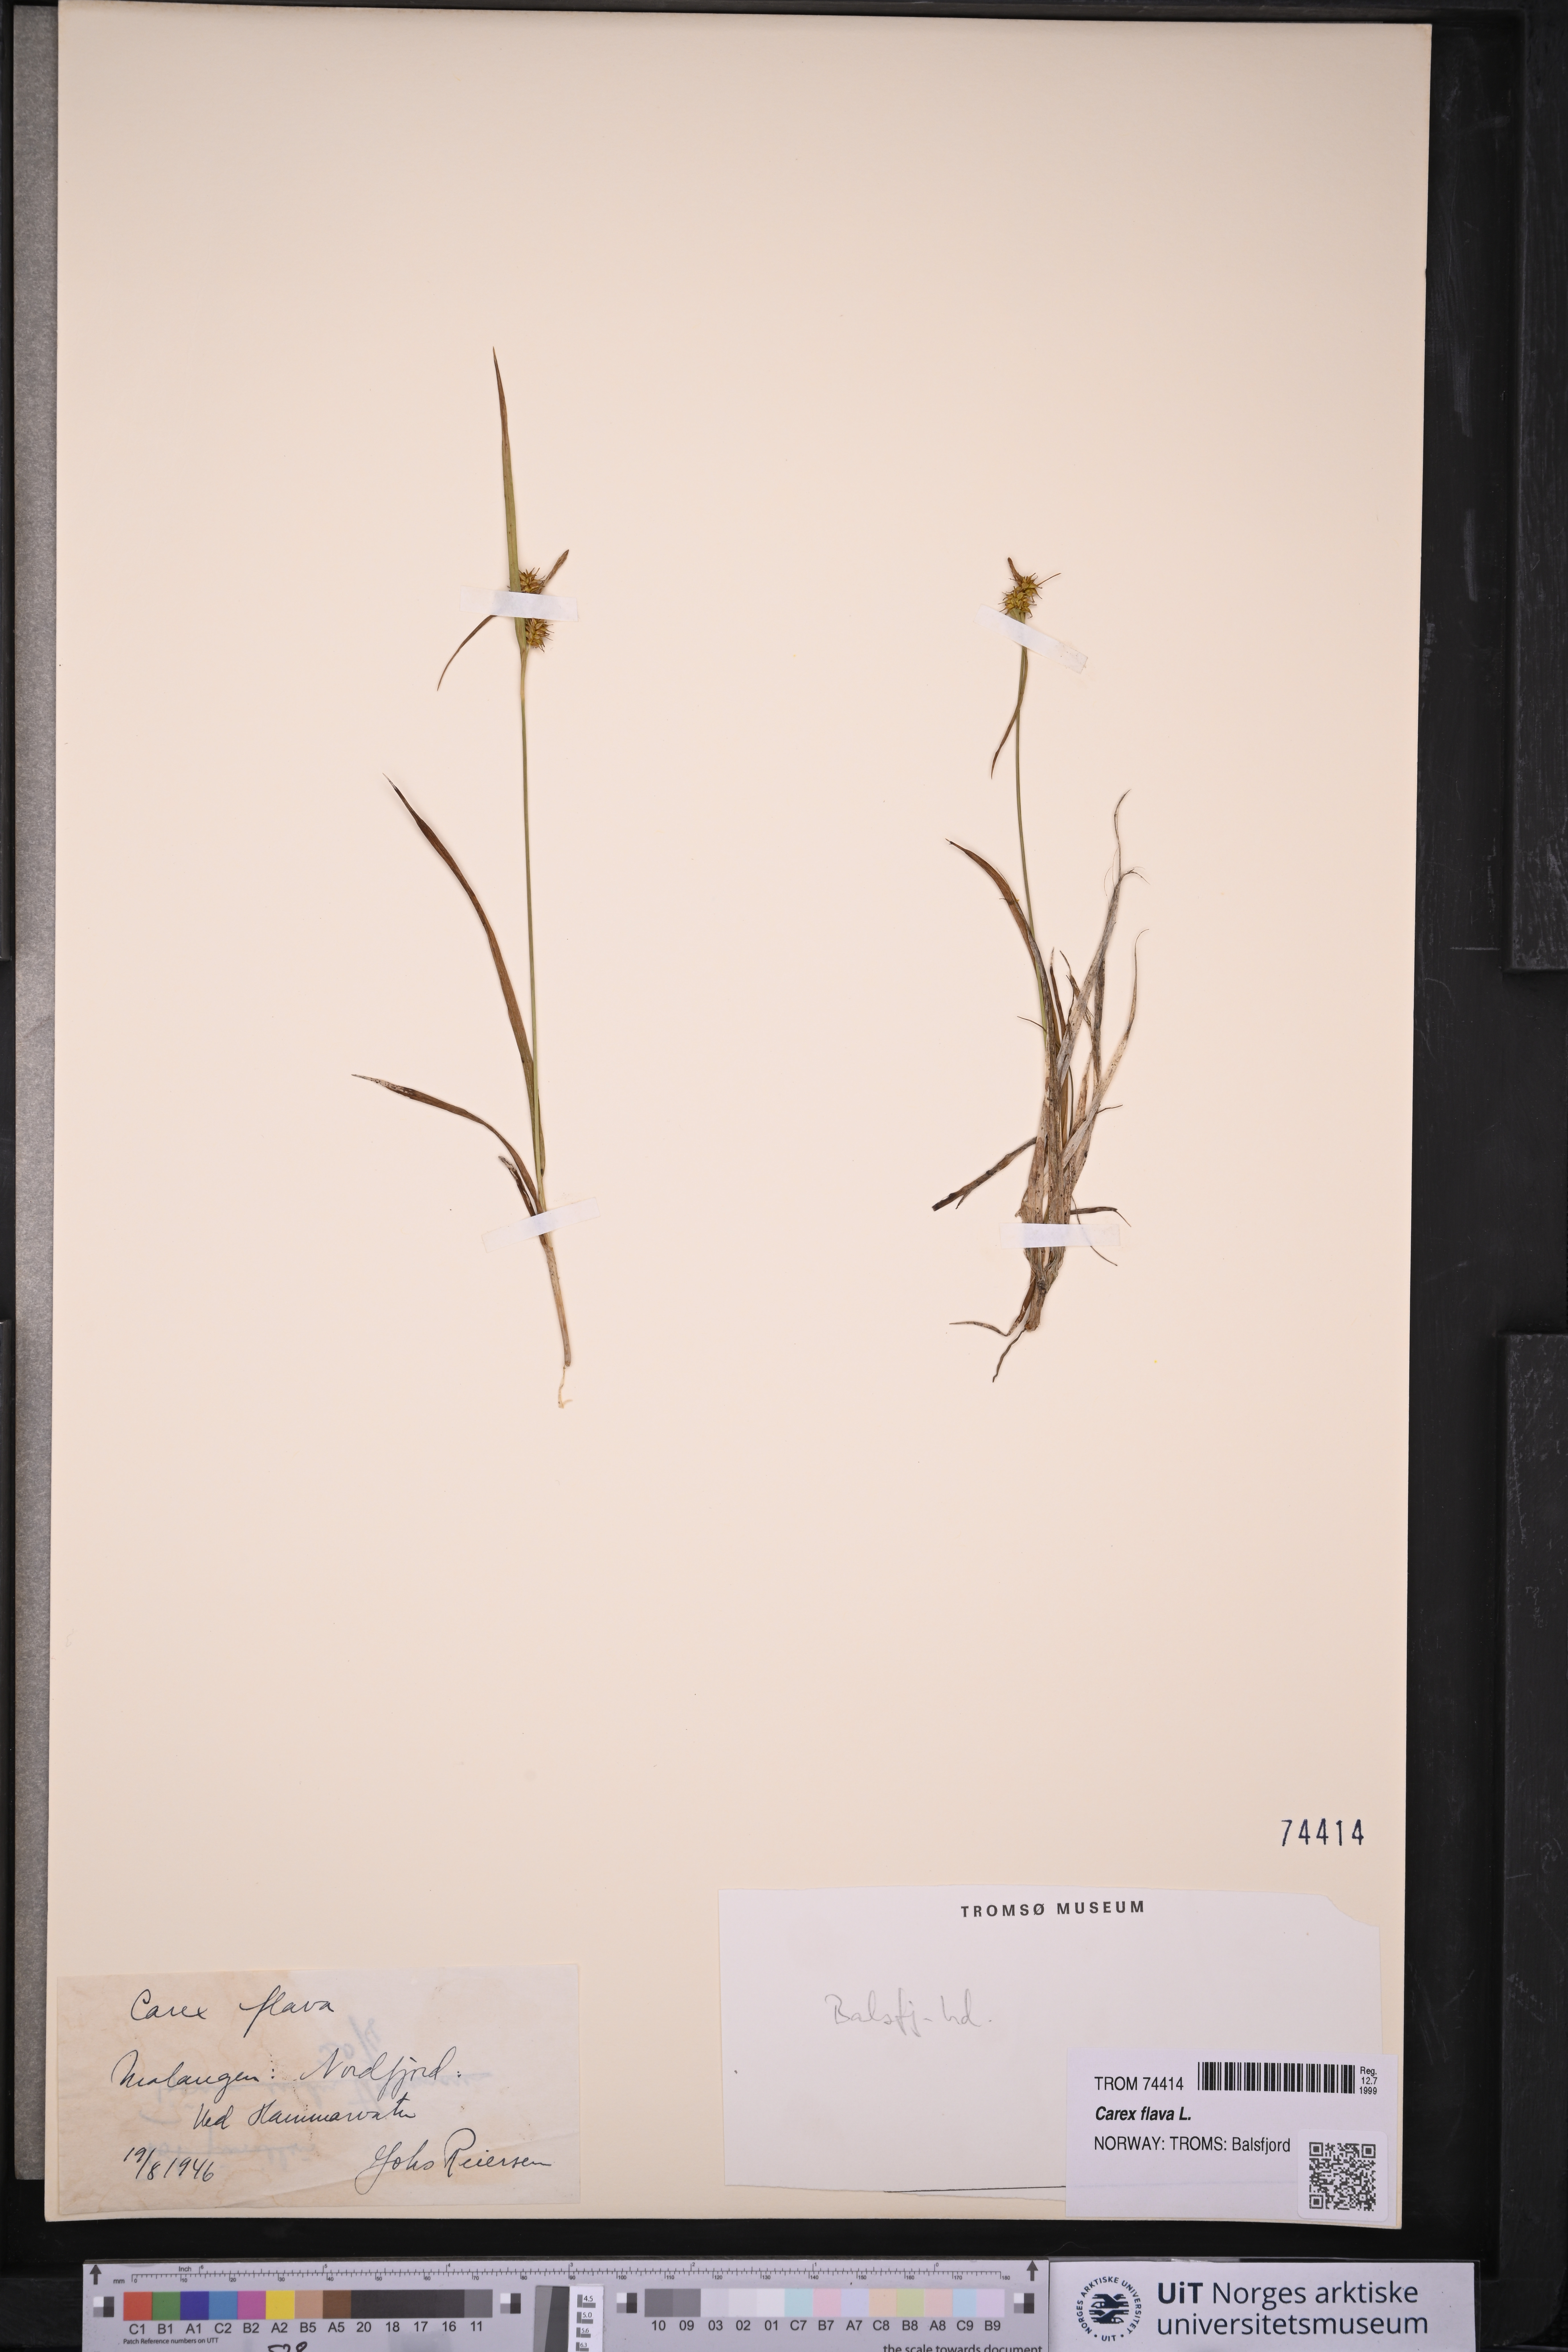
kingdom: Plantae
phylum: Tracheophyta
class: Liliopsida
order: Poales
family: Cyperaceae
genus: Carex
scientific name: Carex flava
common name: Large yellow-sedge
